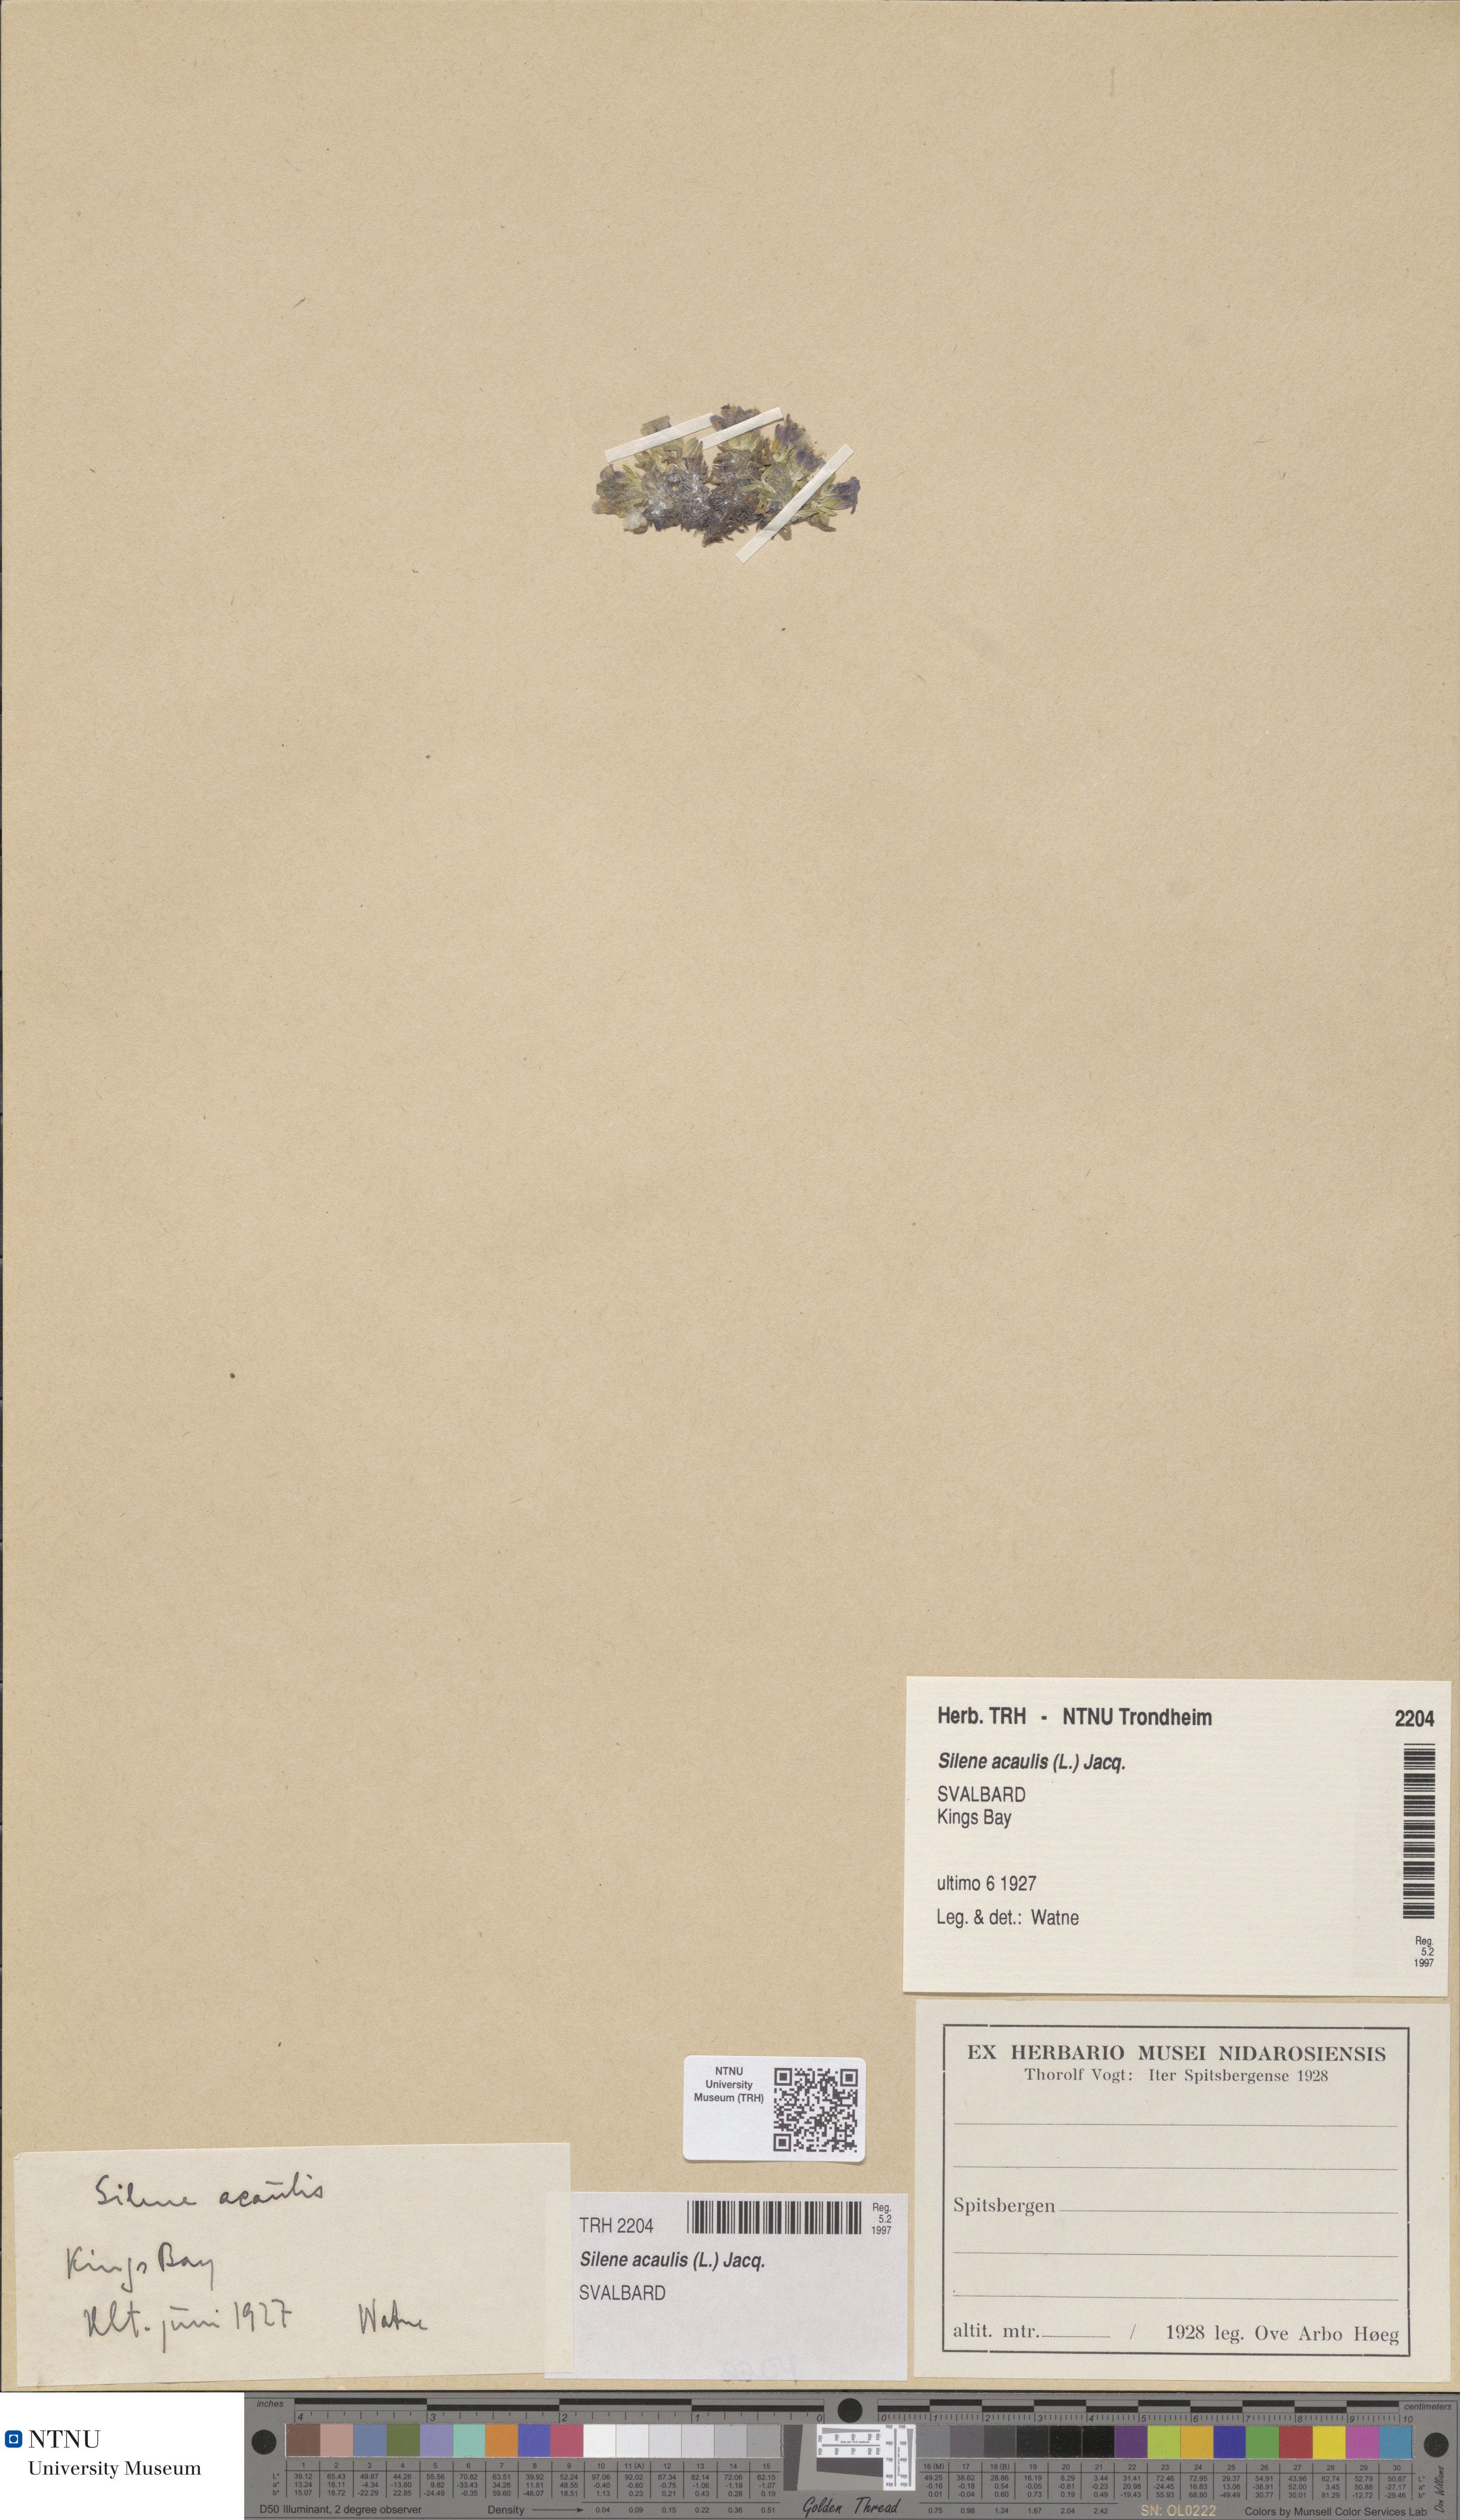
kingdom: Plantae
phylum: Tracheophyta
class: Magnoliopsida
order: Caryophyllales
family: Caryophyllaceae
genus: Silene
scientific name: Silene acaulis
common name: Moss campion
